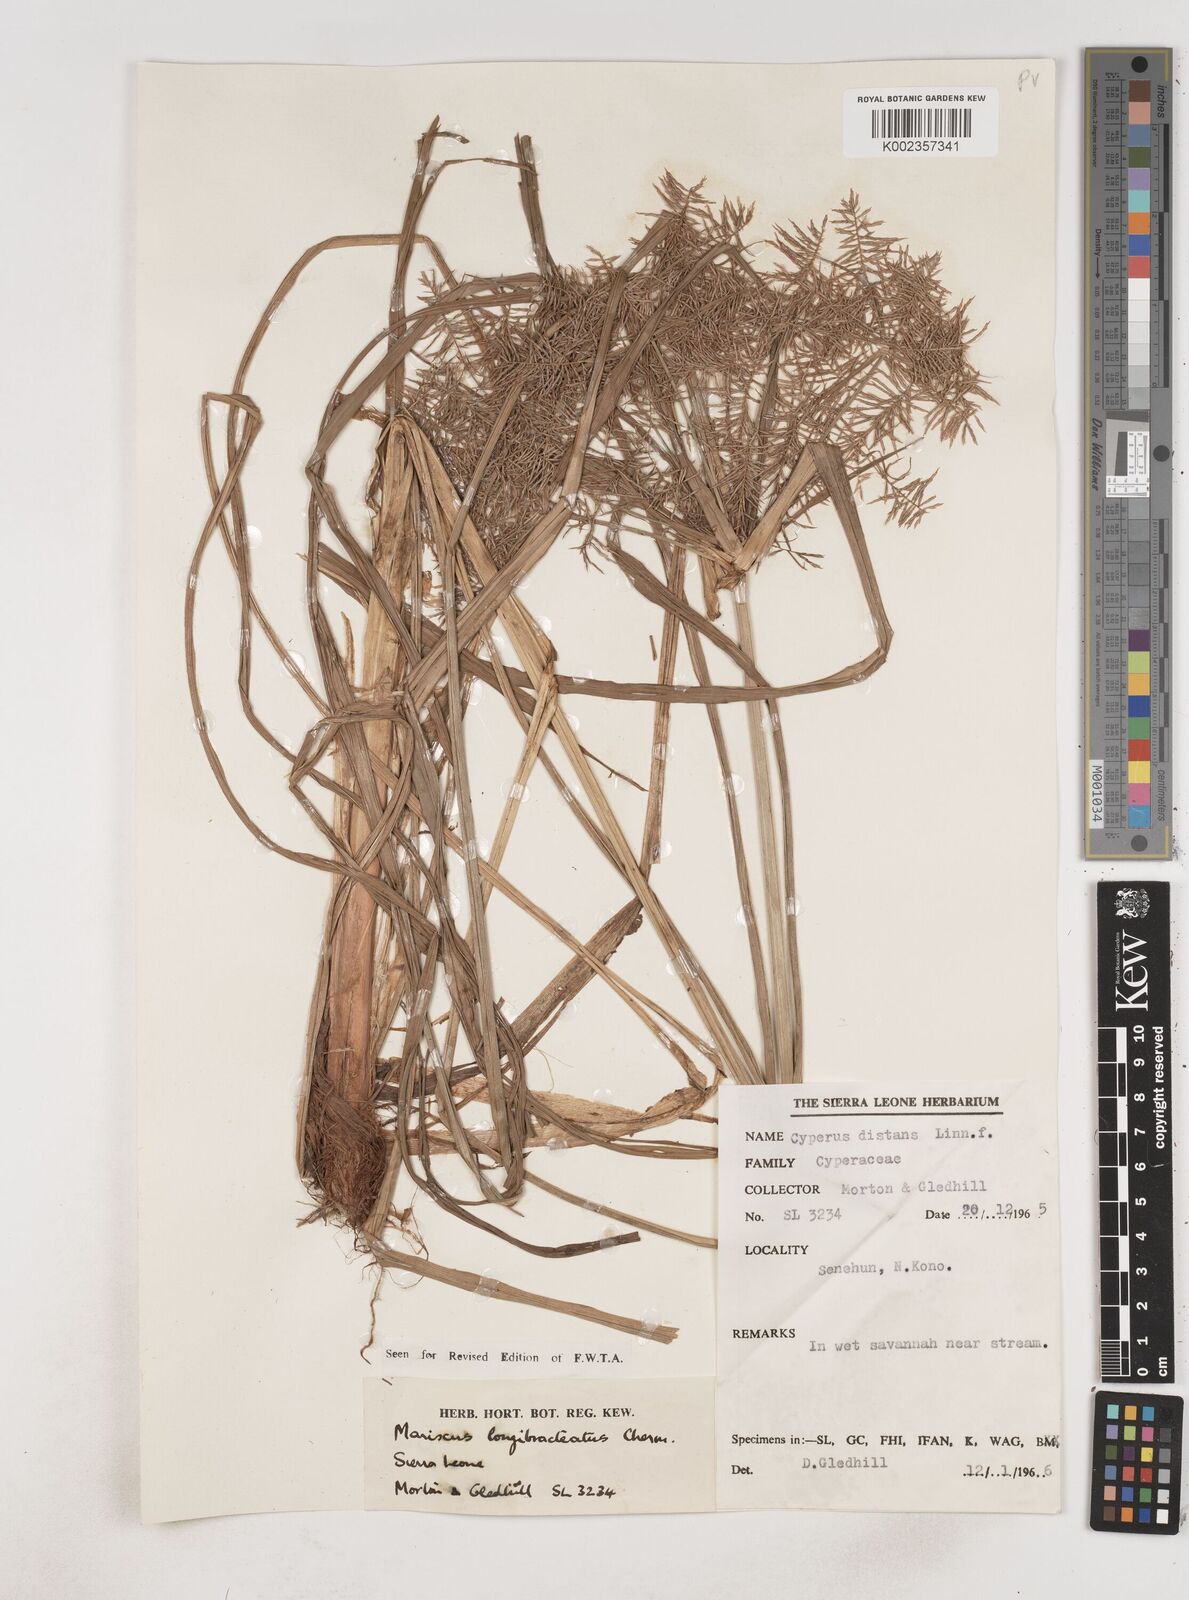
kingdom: Plantae
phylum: Tracheophyta
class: Liliopsida
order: Poales
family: Cyperaceae
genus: Cyperus
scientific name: Cyperus distans
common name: Slender cyperus
